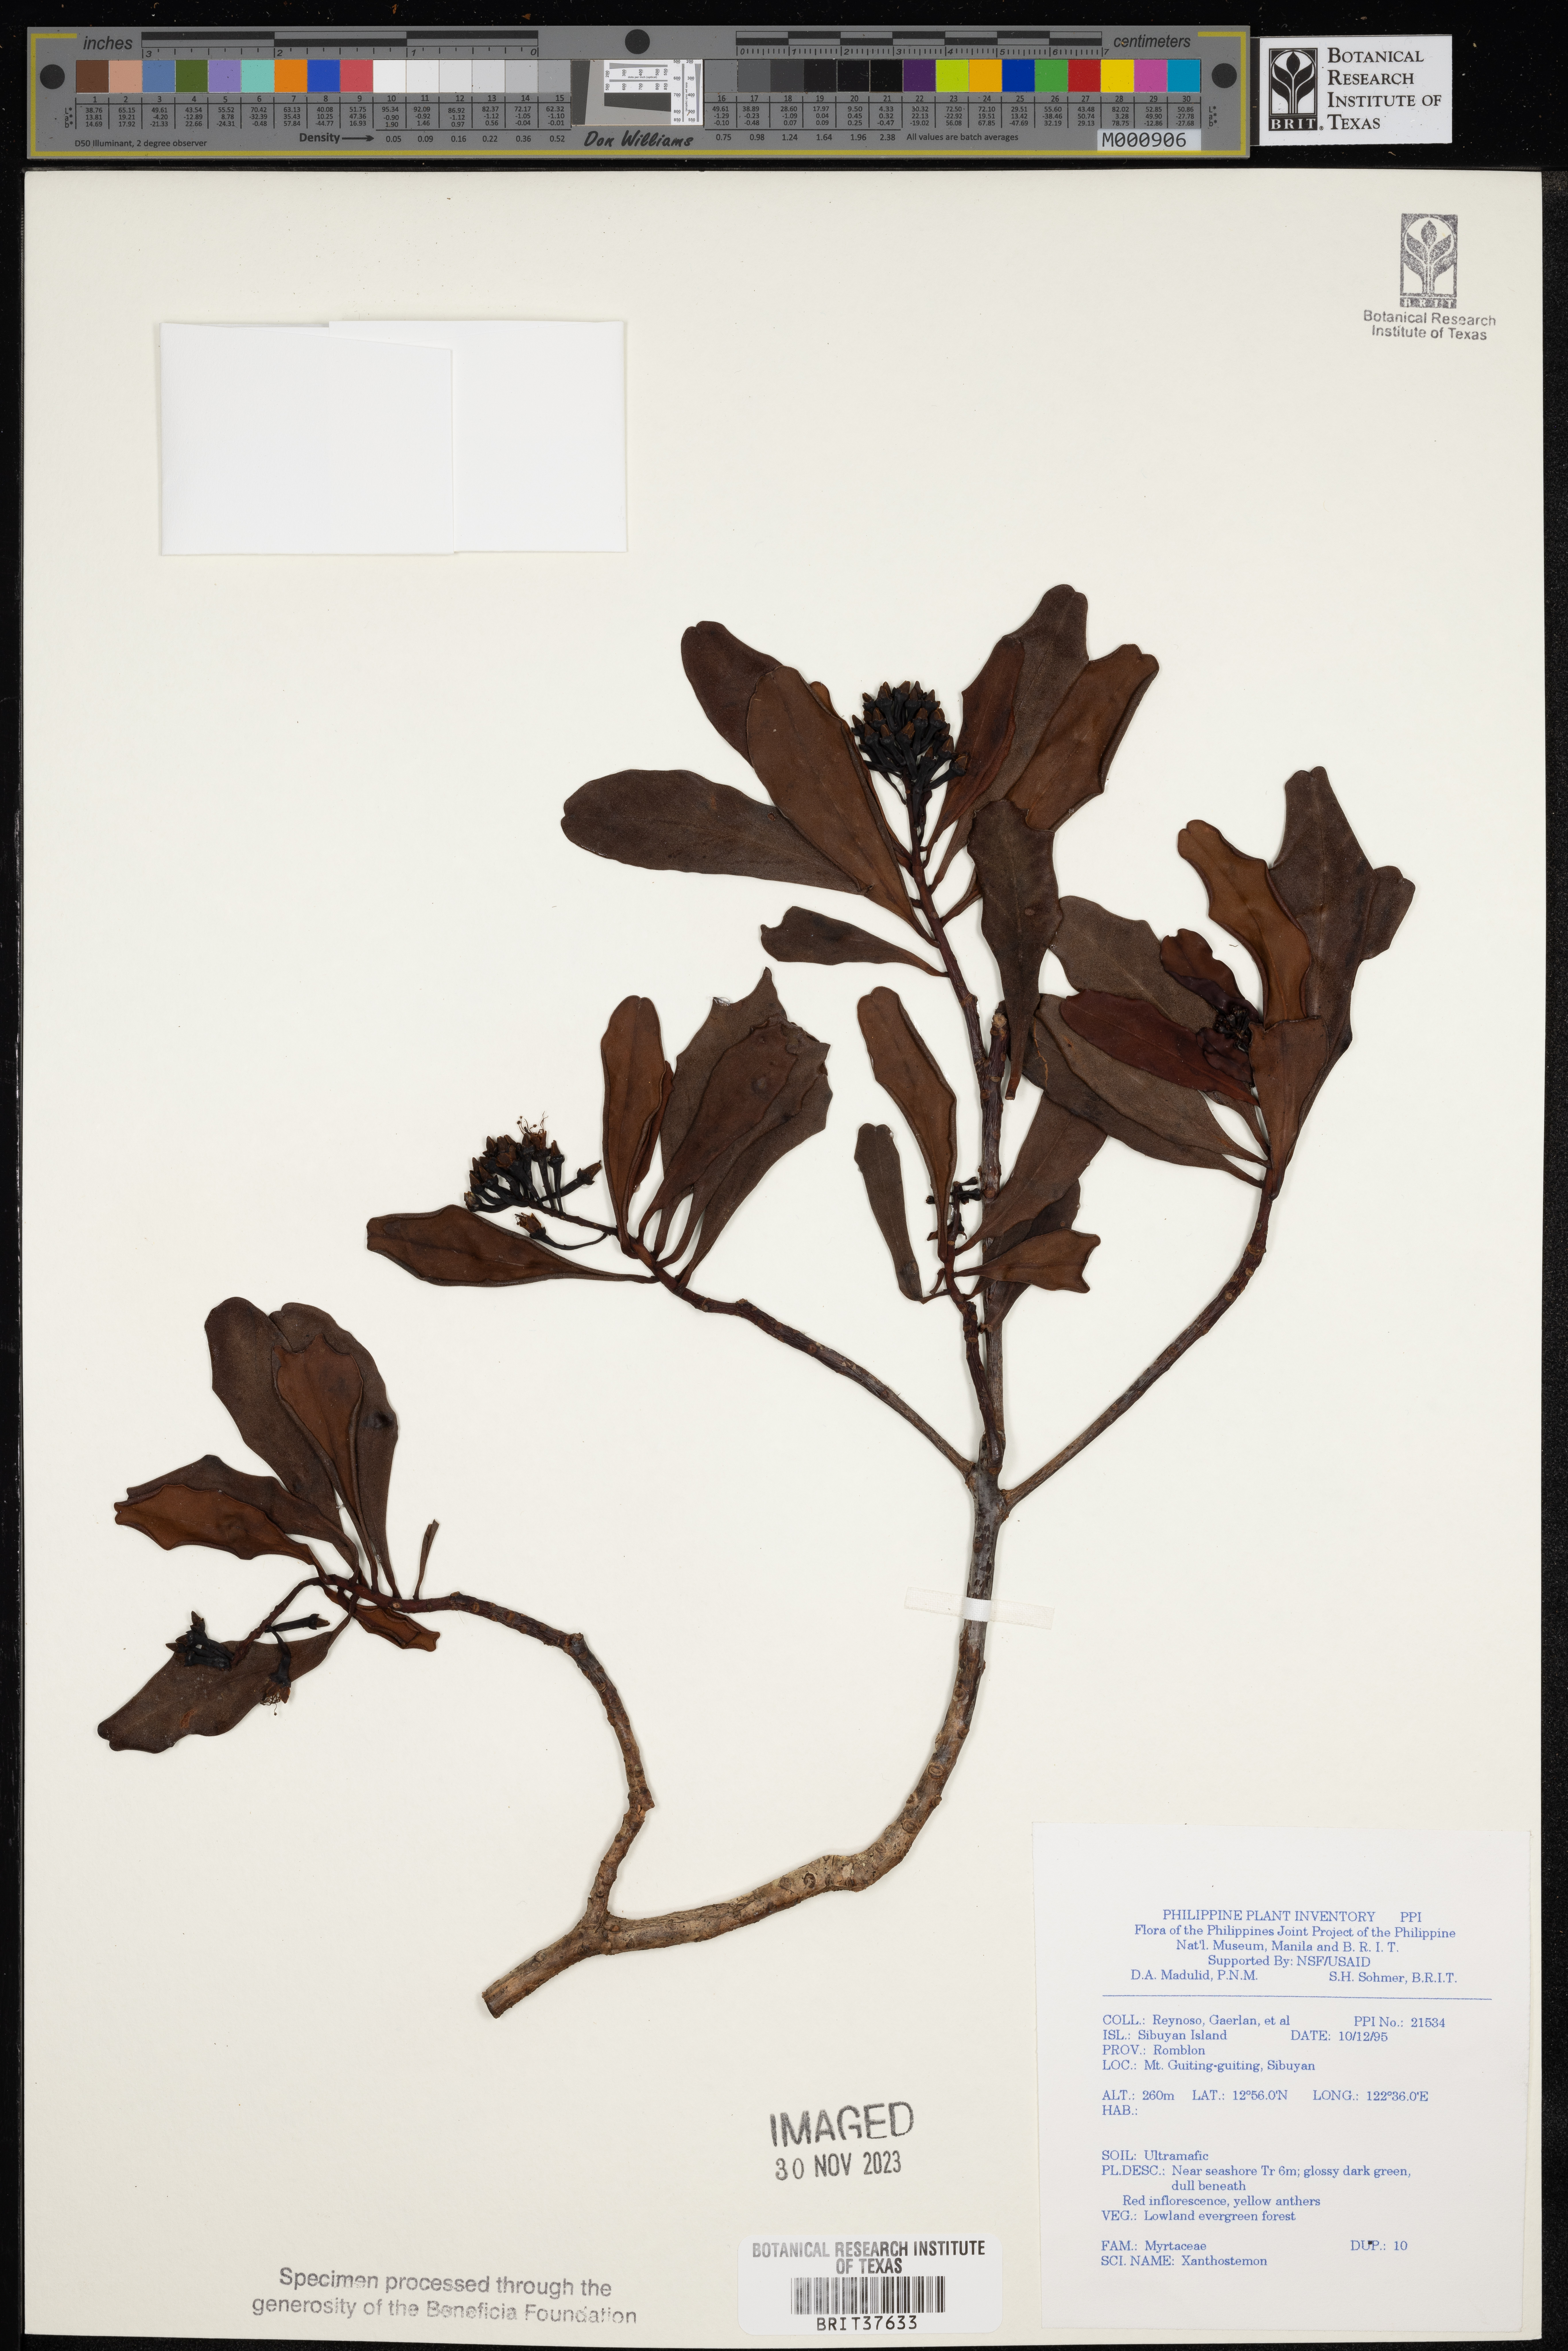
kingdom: Plantae
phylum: Tracheophyta
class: Magnoliopsida
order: Myrtales
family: Myrtaceae
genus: Xanthostemon
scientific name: Xanthostemon
